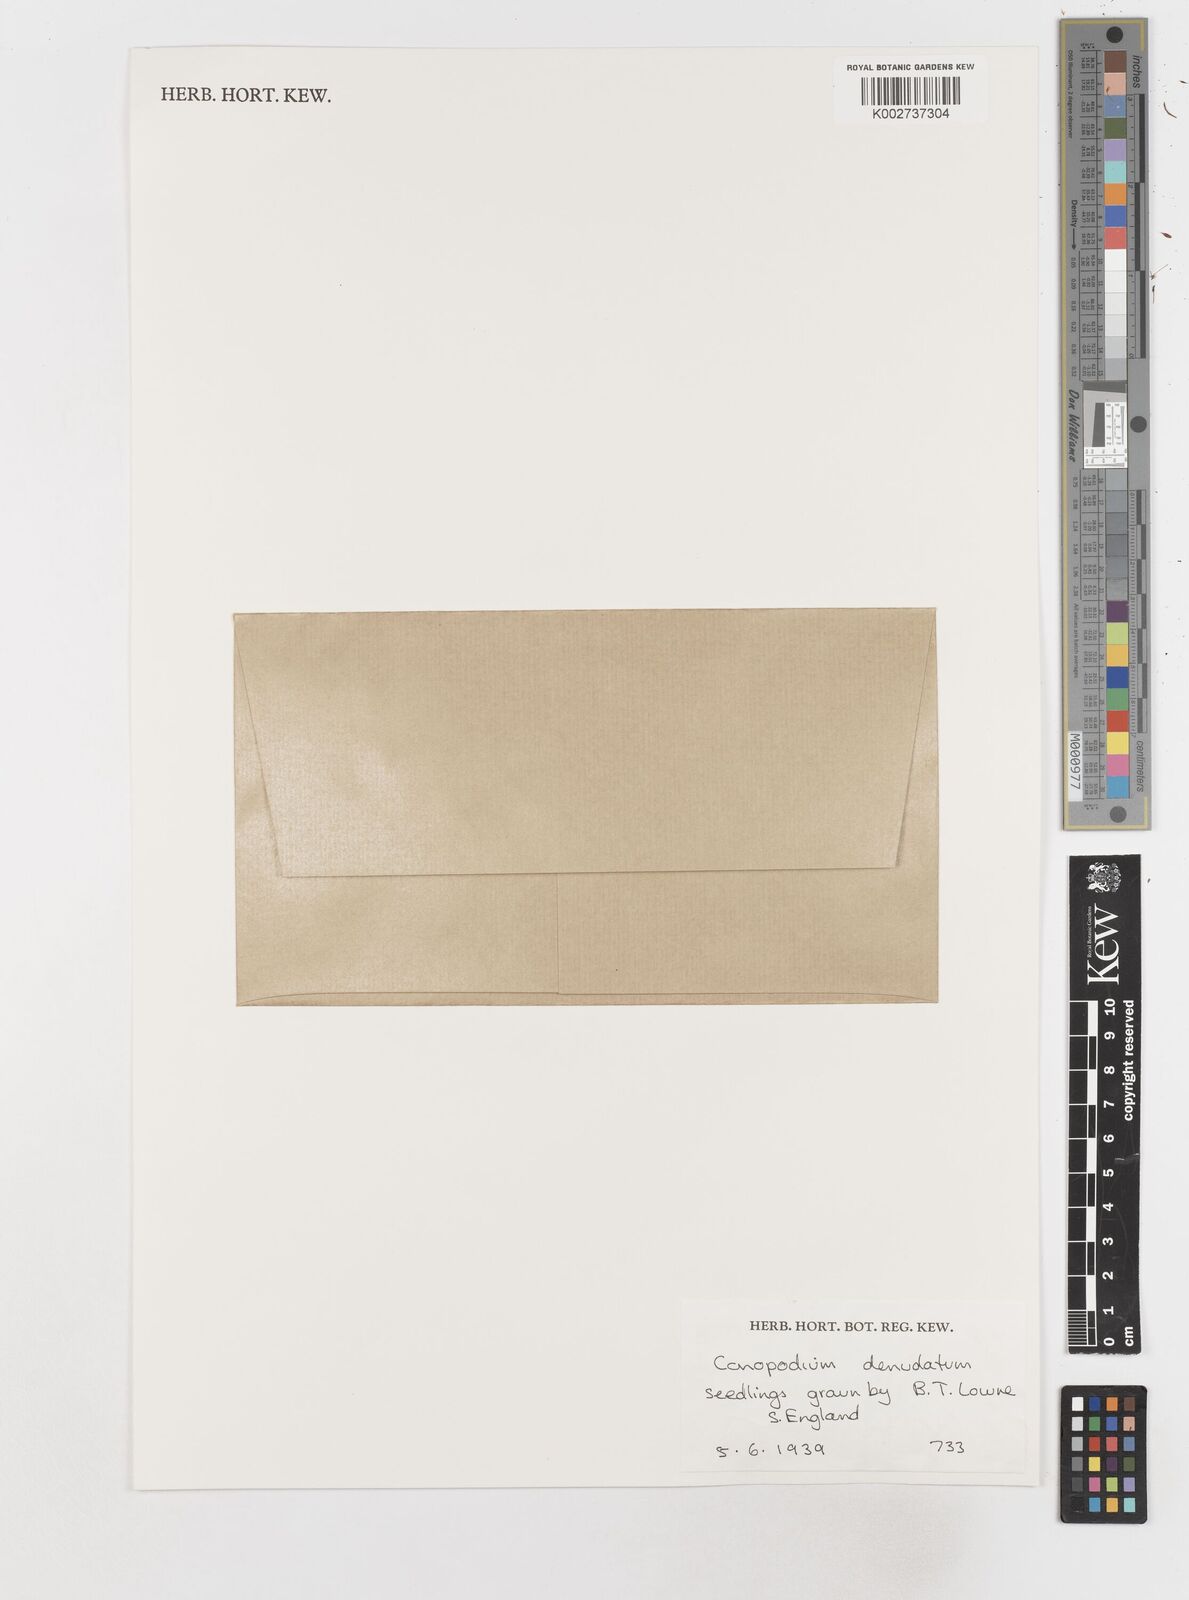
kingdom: Plantae
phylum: Tracheophyta
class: Magnoliopsida
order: Apiales
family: Apiaceae
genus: Conopodium
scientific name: Conopodium majus
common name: Pignut
